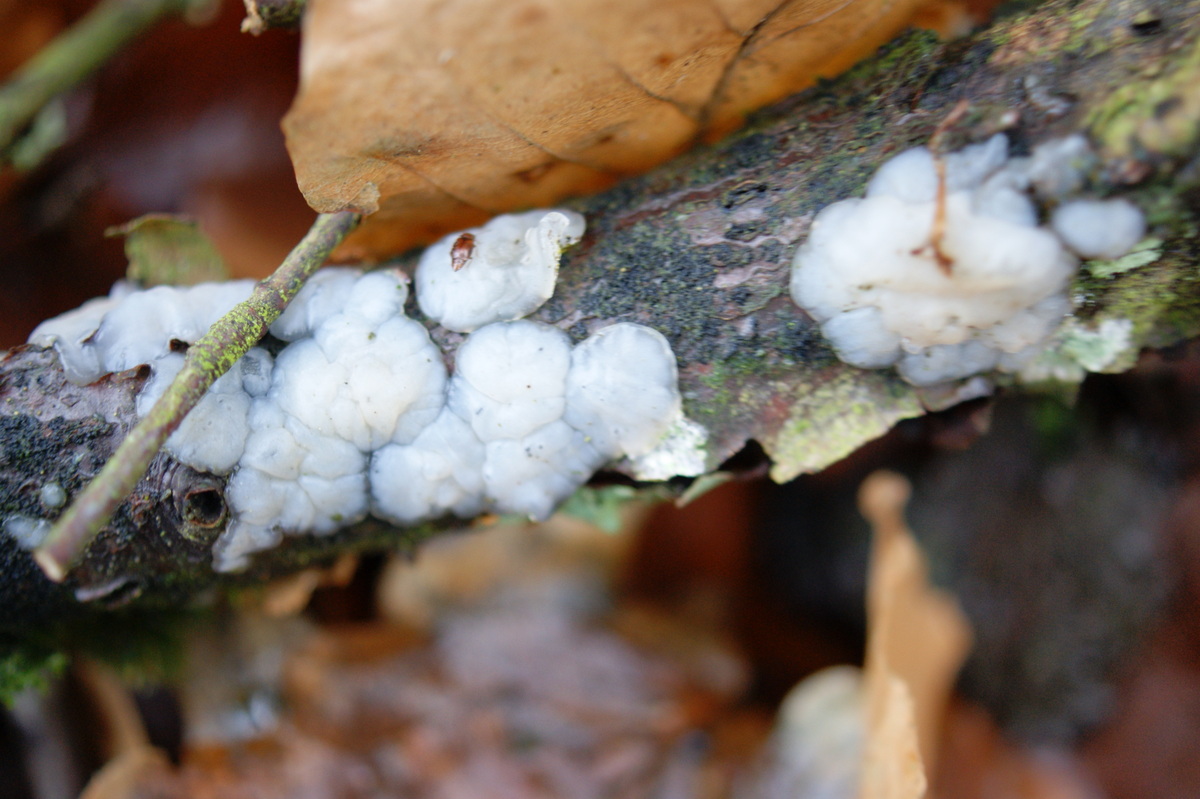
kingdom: Fungi
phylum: Basidiomycota
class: Agaricomycetes
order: Auriculariales
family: Auriculariaceae
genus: Exidia
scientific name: Exidia thuretiana
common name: hvidlig bævretop
